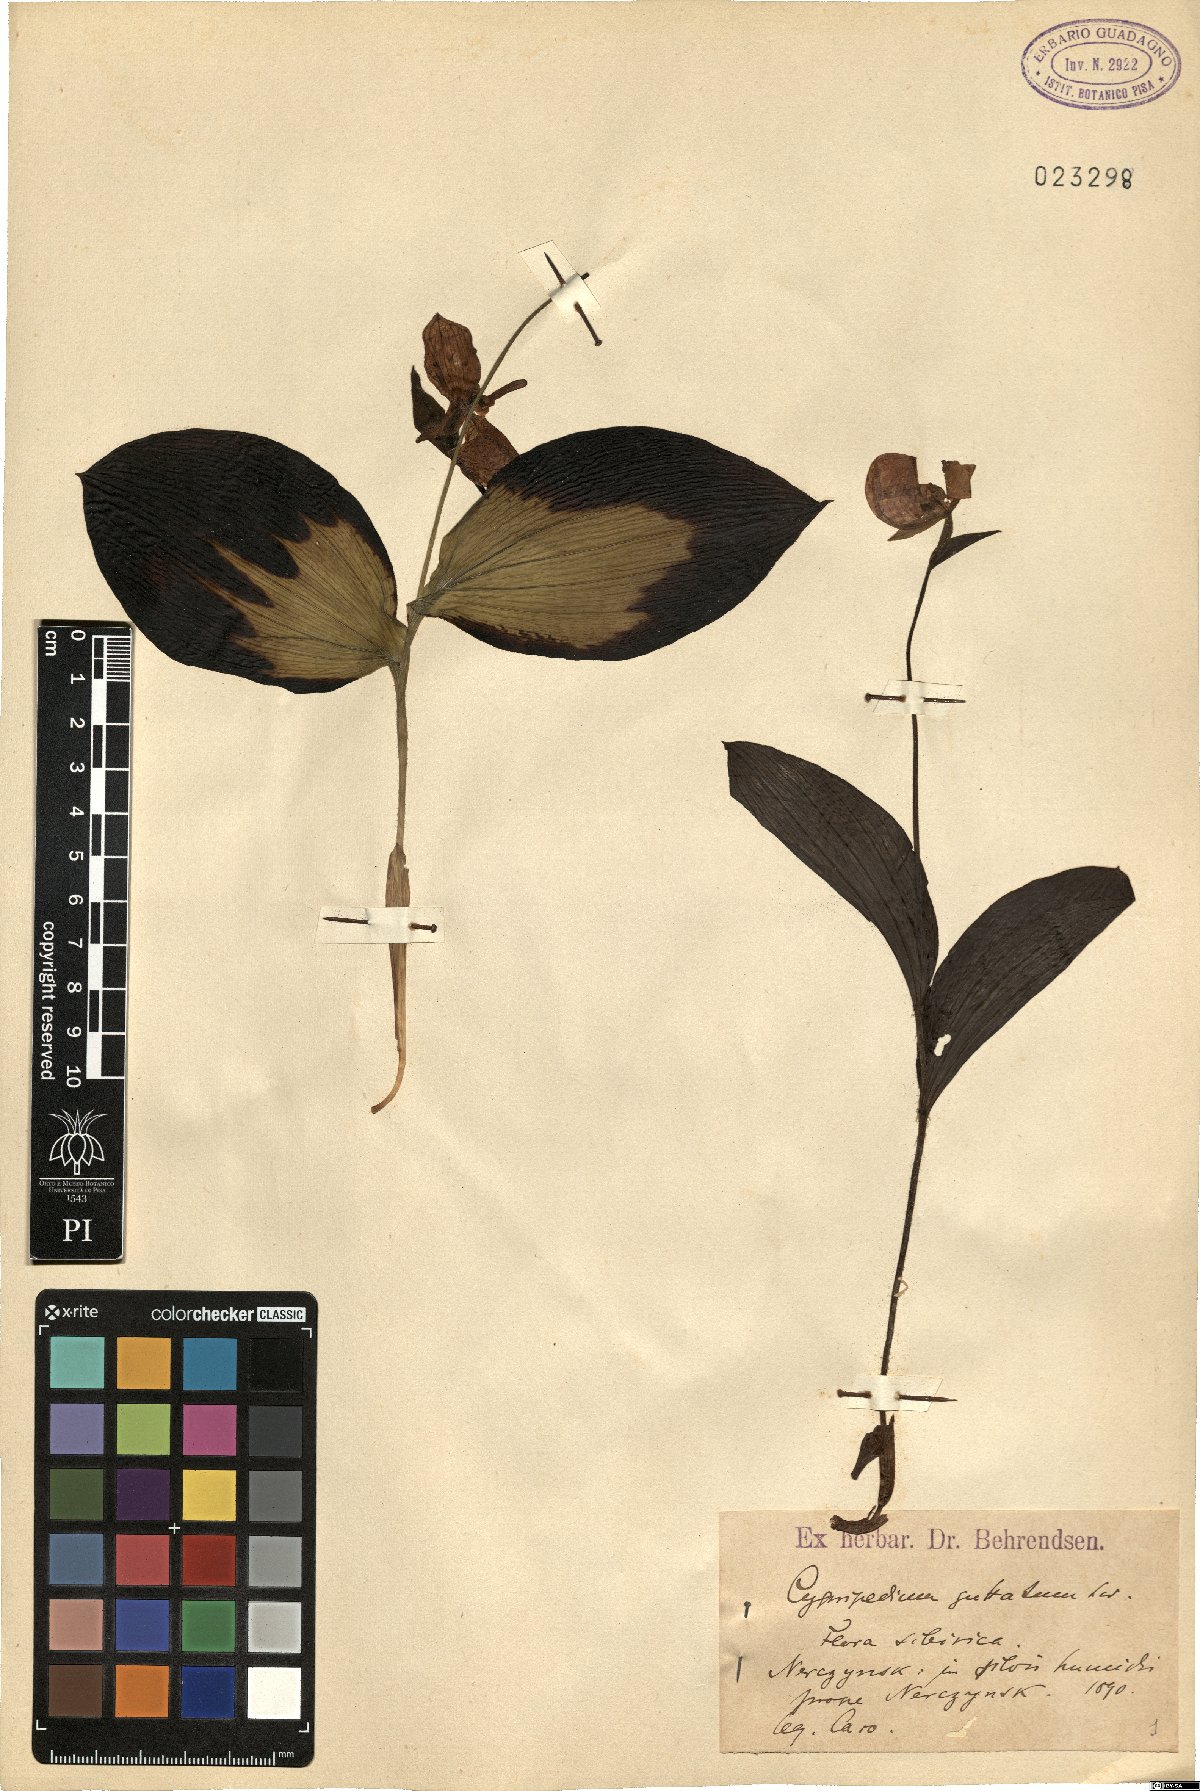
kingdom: Plantae
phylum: Tracheophyta
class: Liliopsida
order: Asparagales
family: Orchidaceae
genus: Cypripedium
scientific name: Cypripedium guttatum
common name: Pink lady slipper
